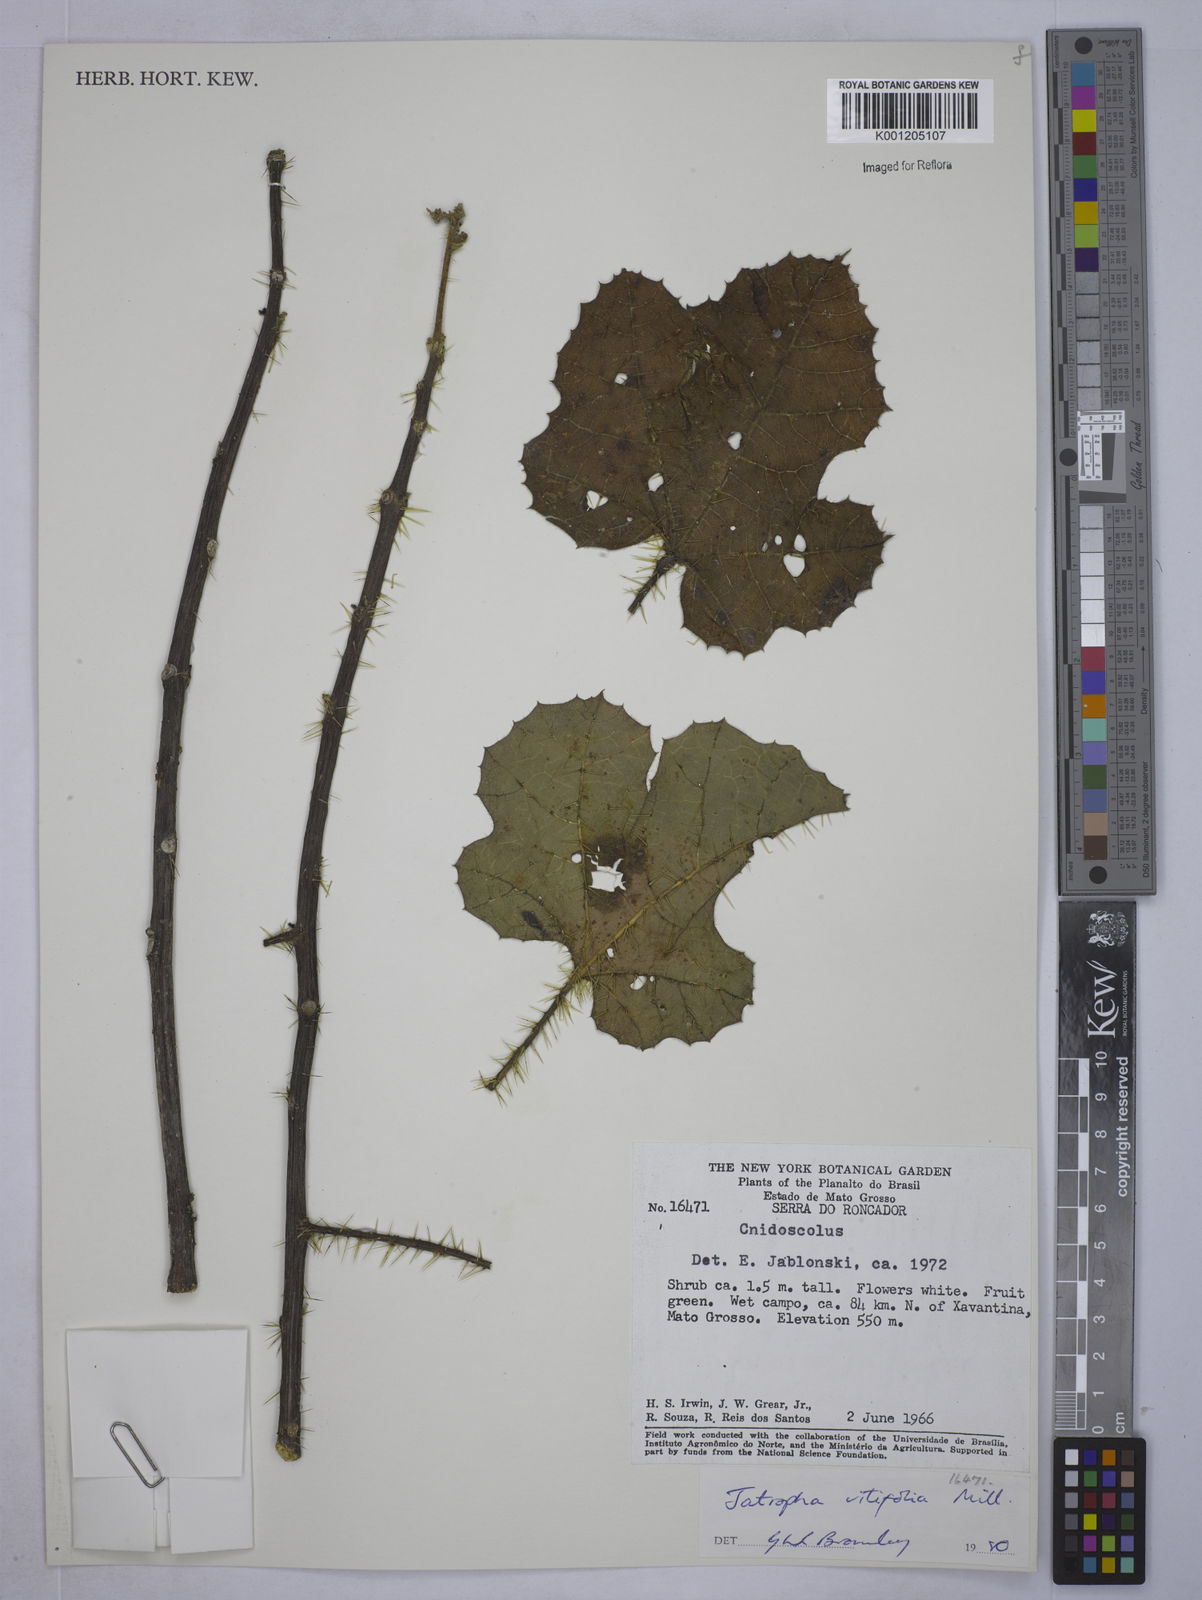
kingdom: Plantae
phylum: Tracheophyta
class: Magnoliopsida
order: Malpighiales
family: Euphorbiaceae
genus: Cnidoscolus
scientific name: Cnidoscolus vitifolius
